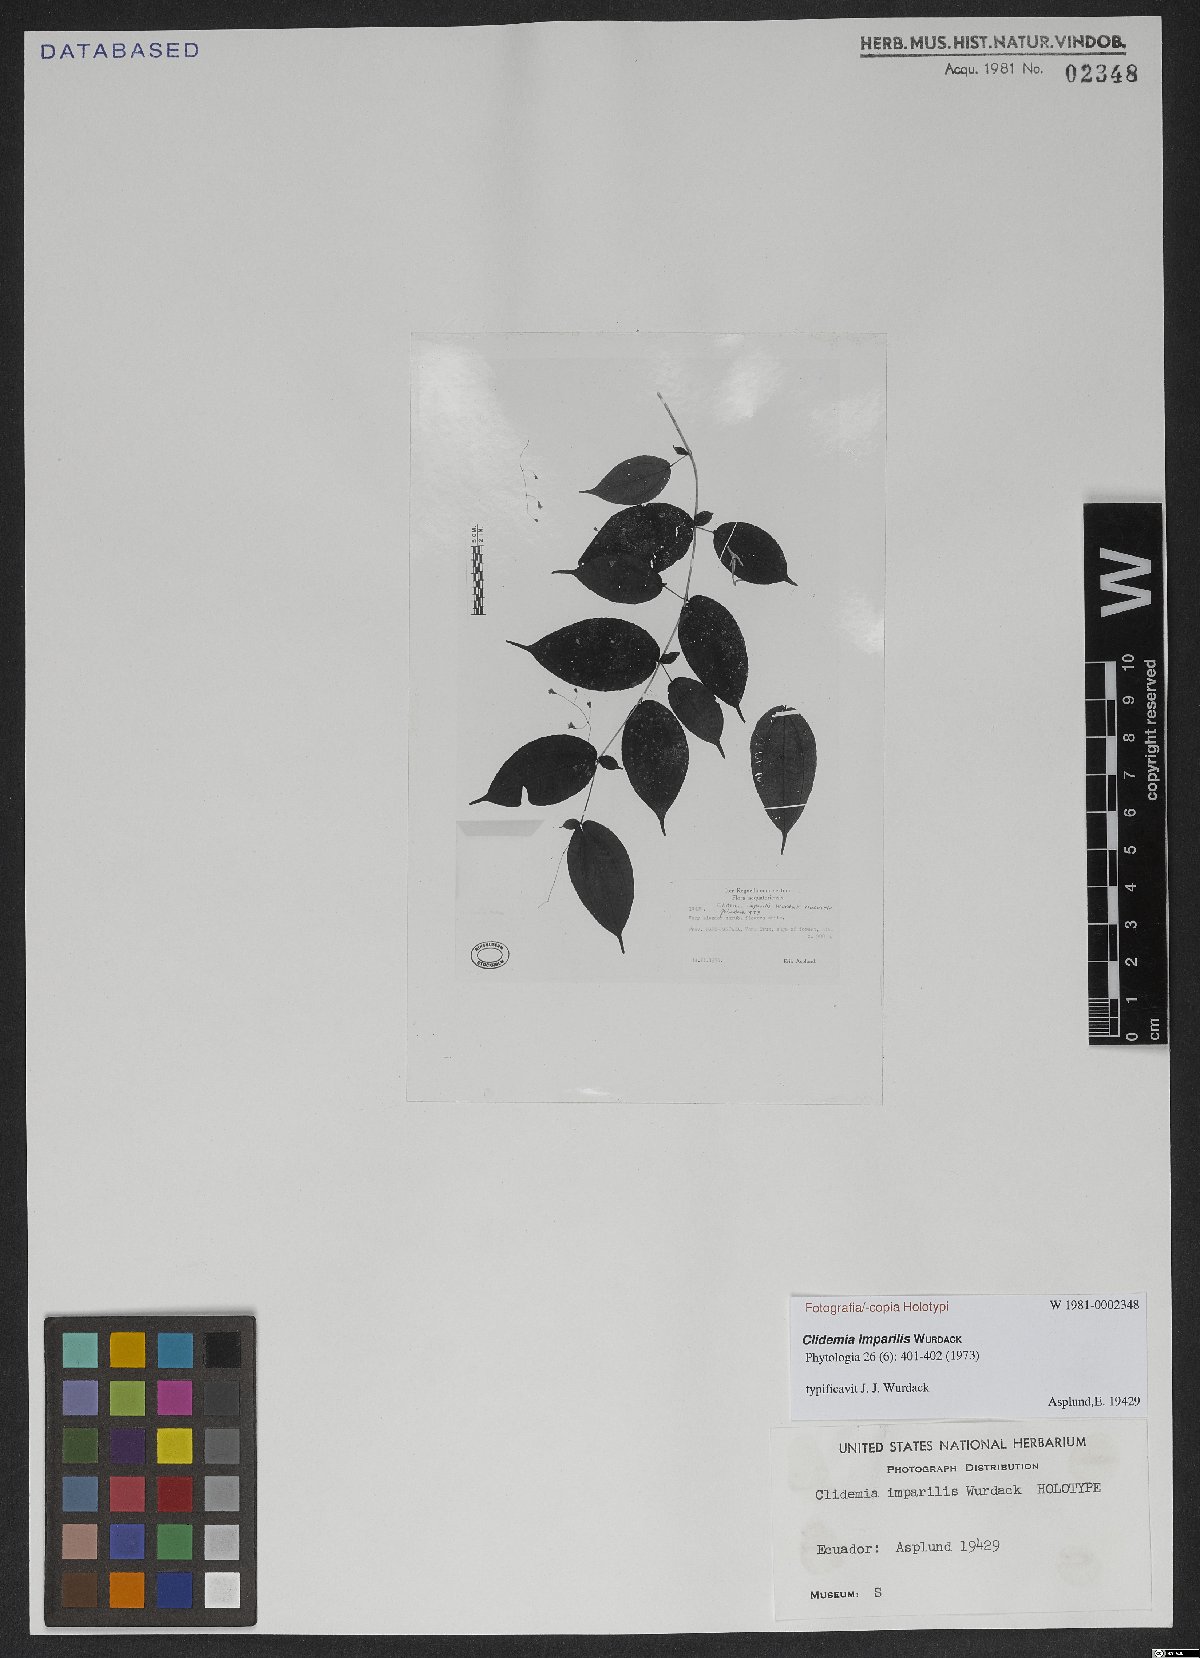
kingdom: Plantae
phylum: Tracheophyta
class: Magnoliopsida
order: Myrtales
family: Melastomataceae
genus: Miconia
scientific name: Miconia imparilis
